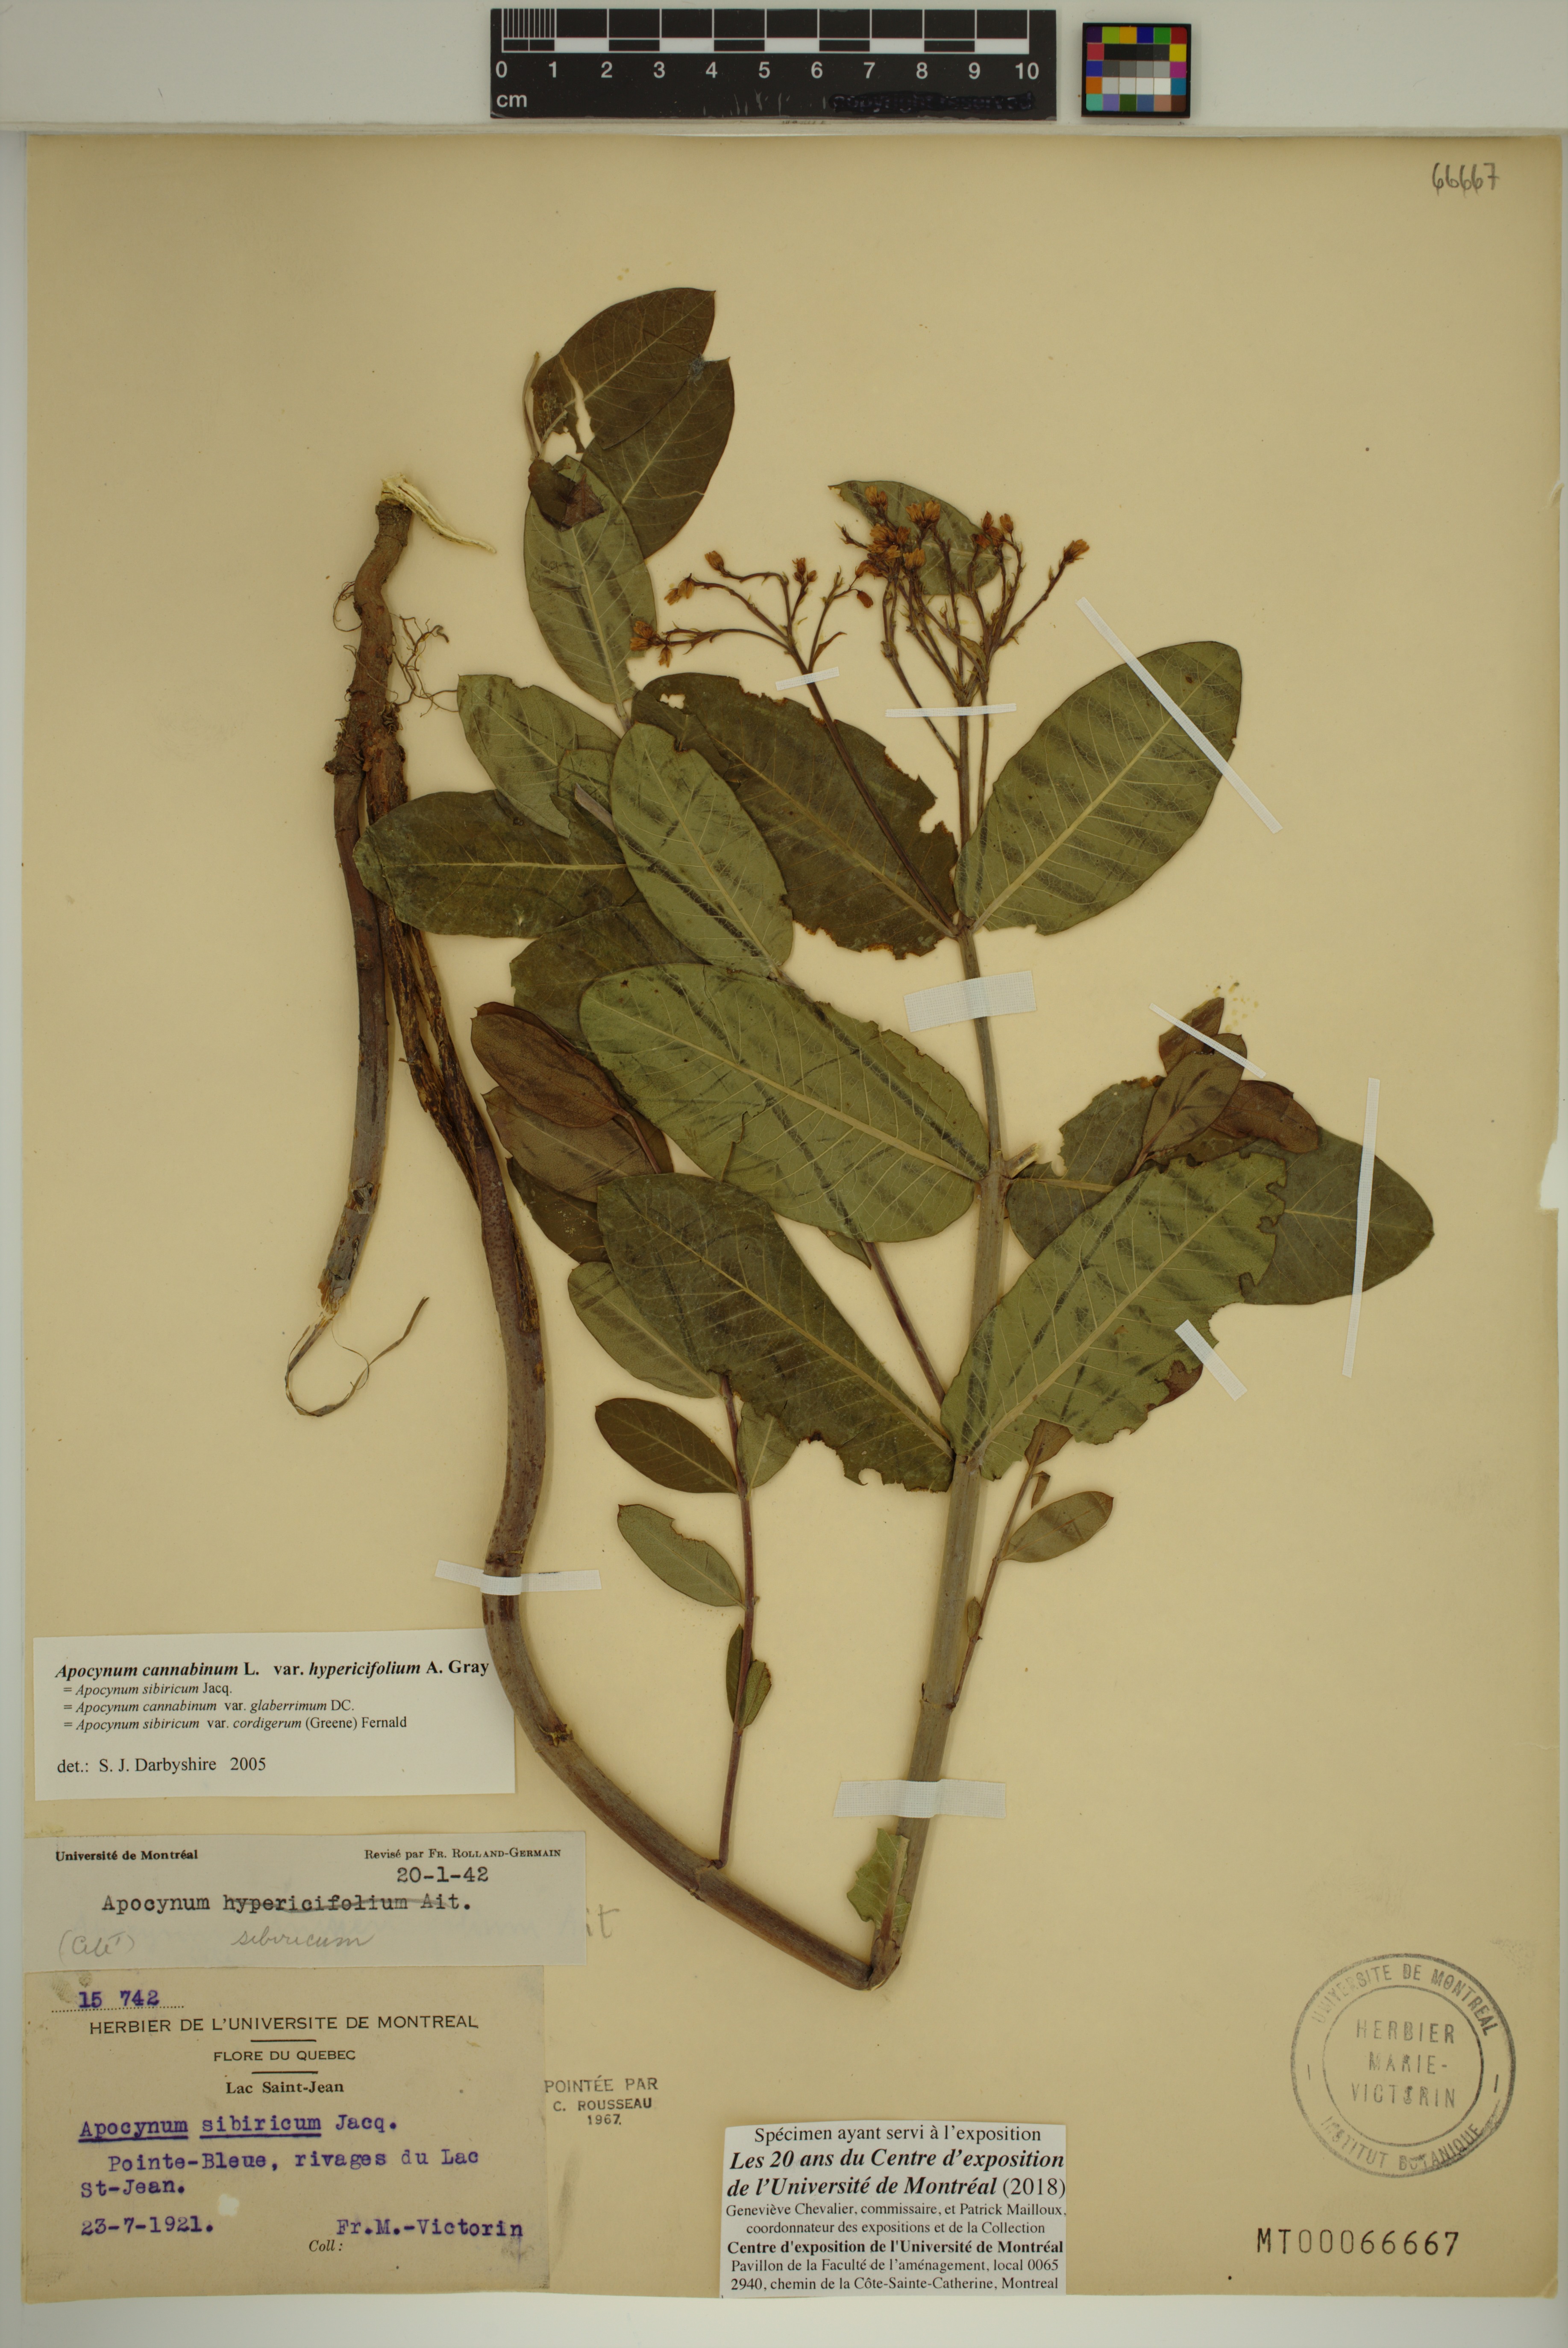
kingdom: Plantae
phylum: Tracheophyta
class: Magnoliopsida
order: Gentianales
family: Apocynaceae
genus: Apocynum
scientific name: Apocynum cannabinum
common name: Hemp dogbane
